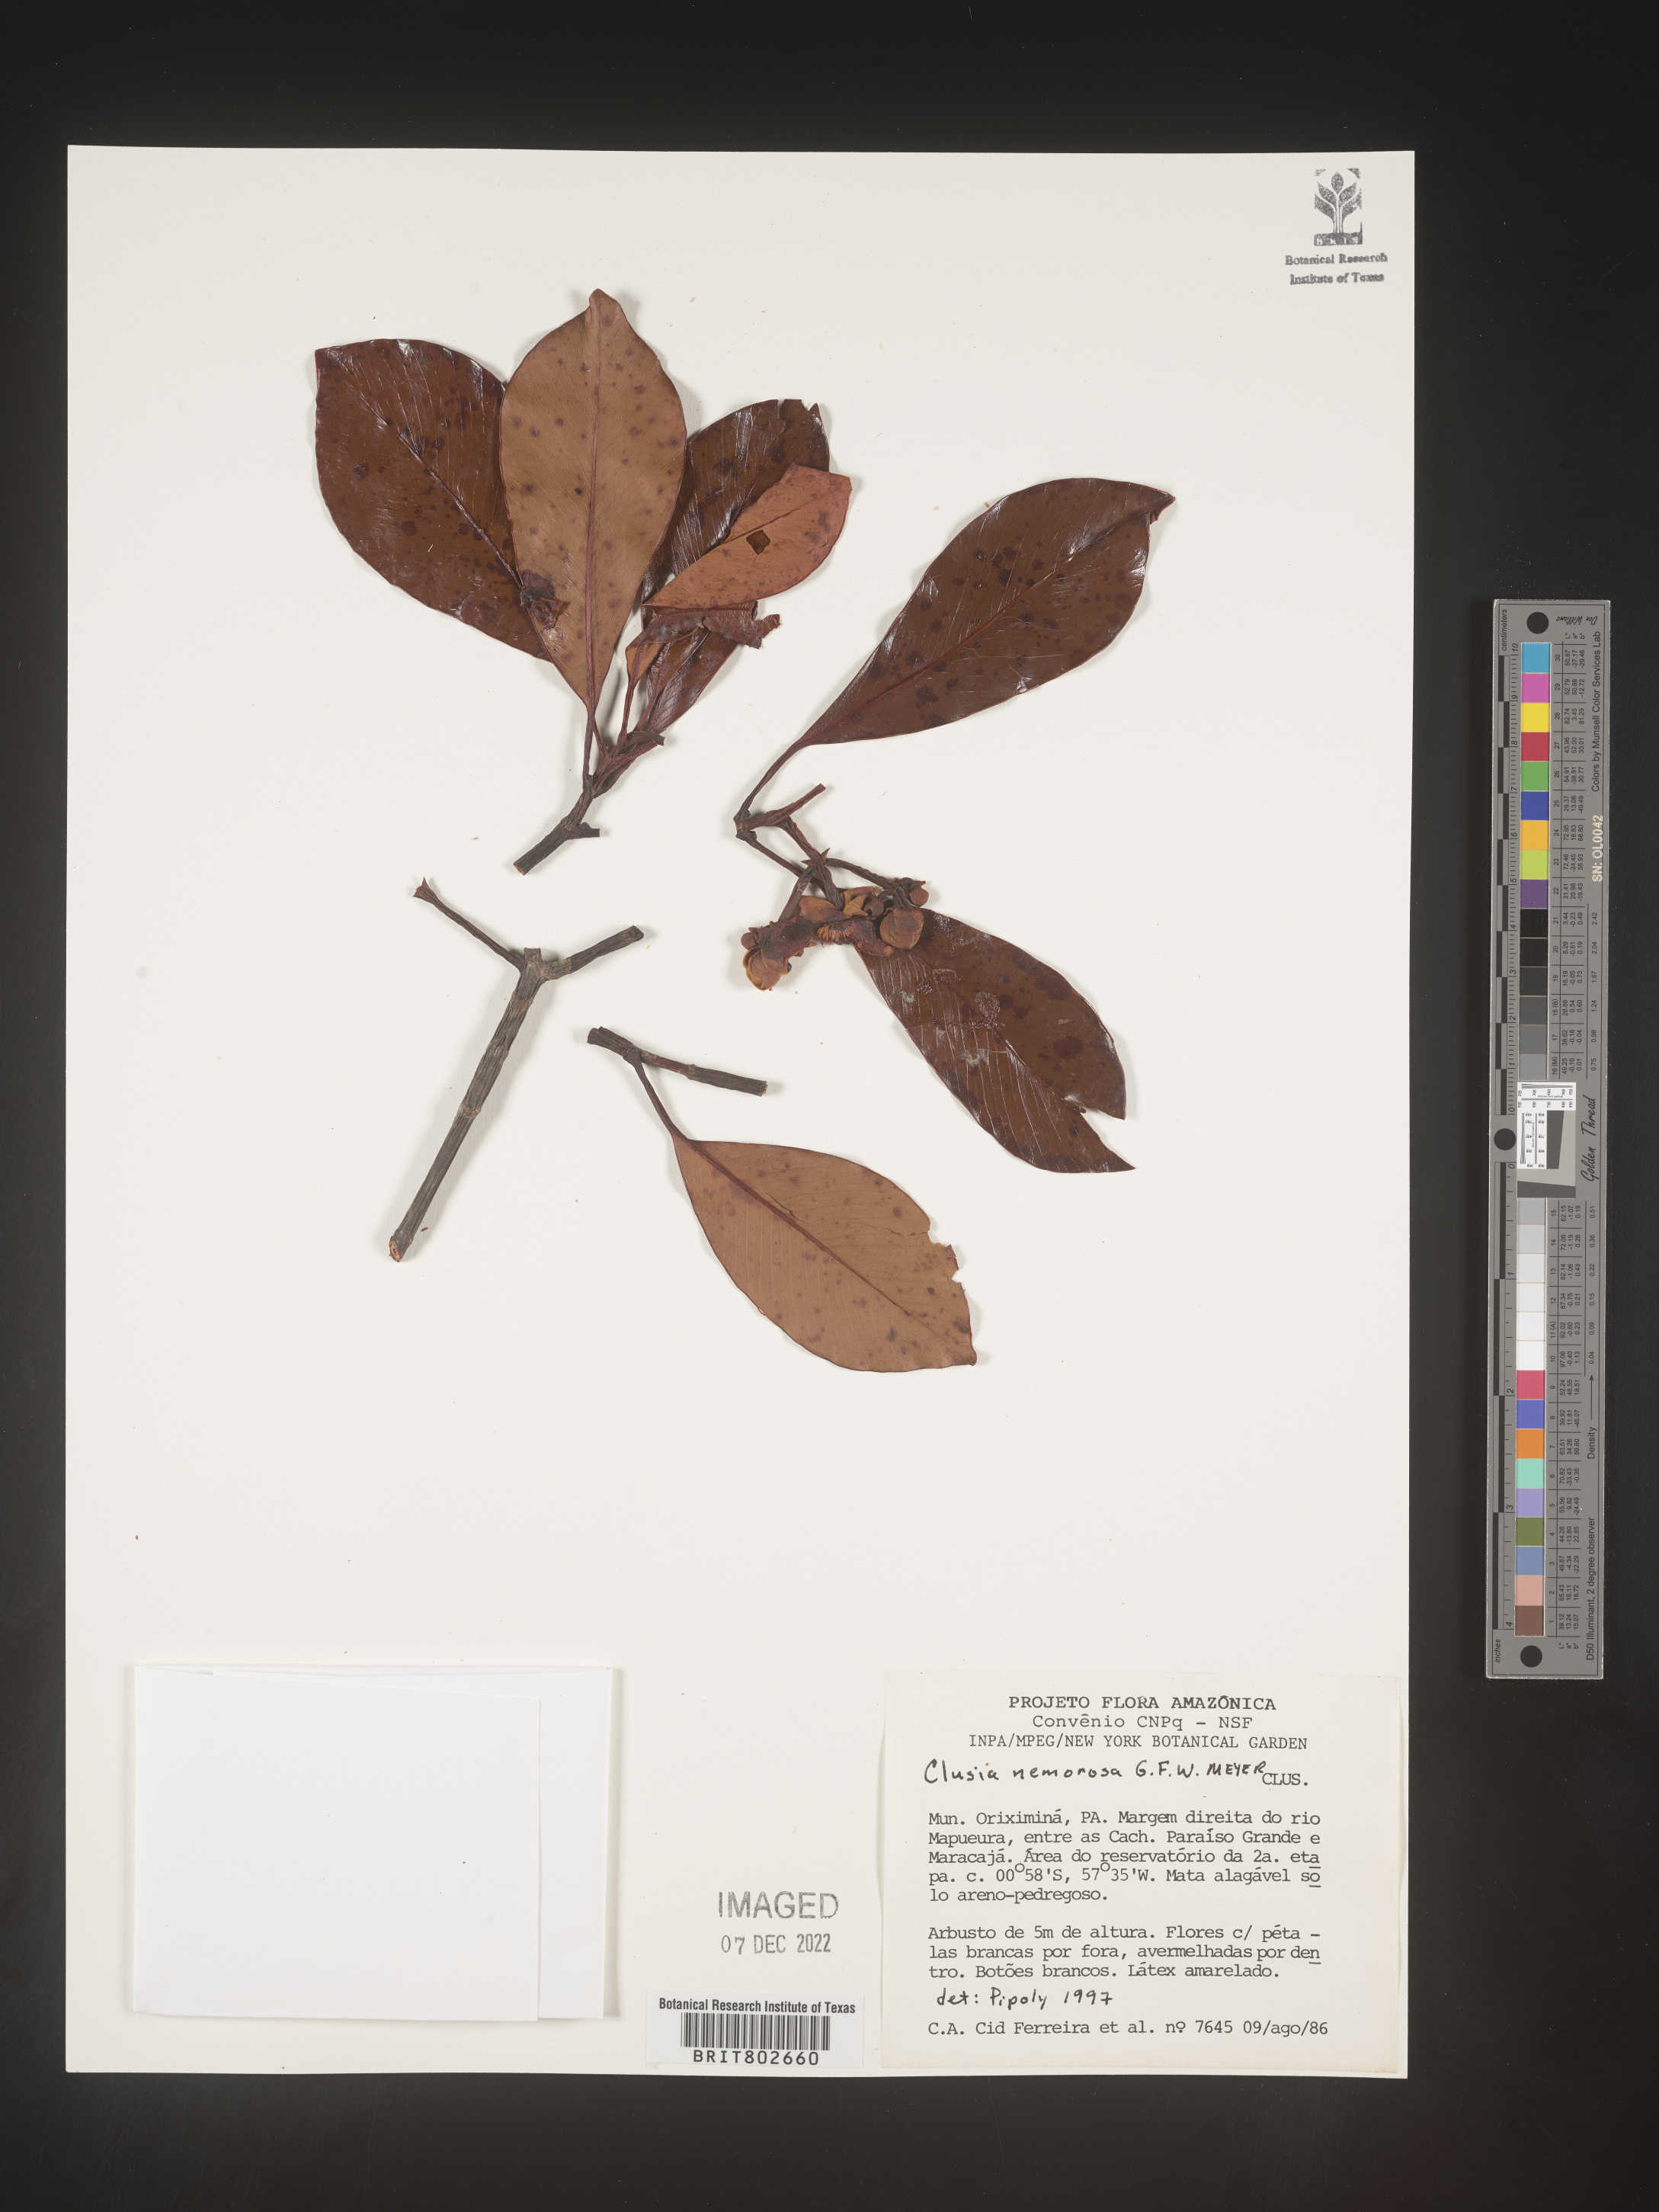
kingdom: Plantae
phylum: Tracheophyta
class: Magnoliopsida
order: Malpighiales
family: Clusiaceae
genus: Clusia
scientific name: Clusia nemorosa
